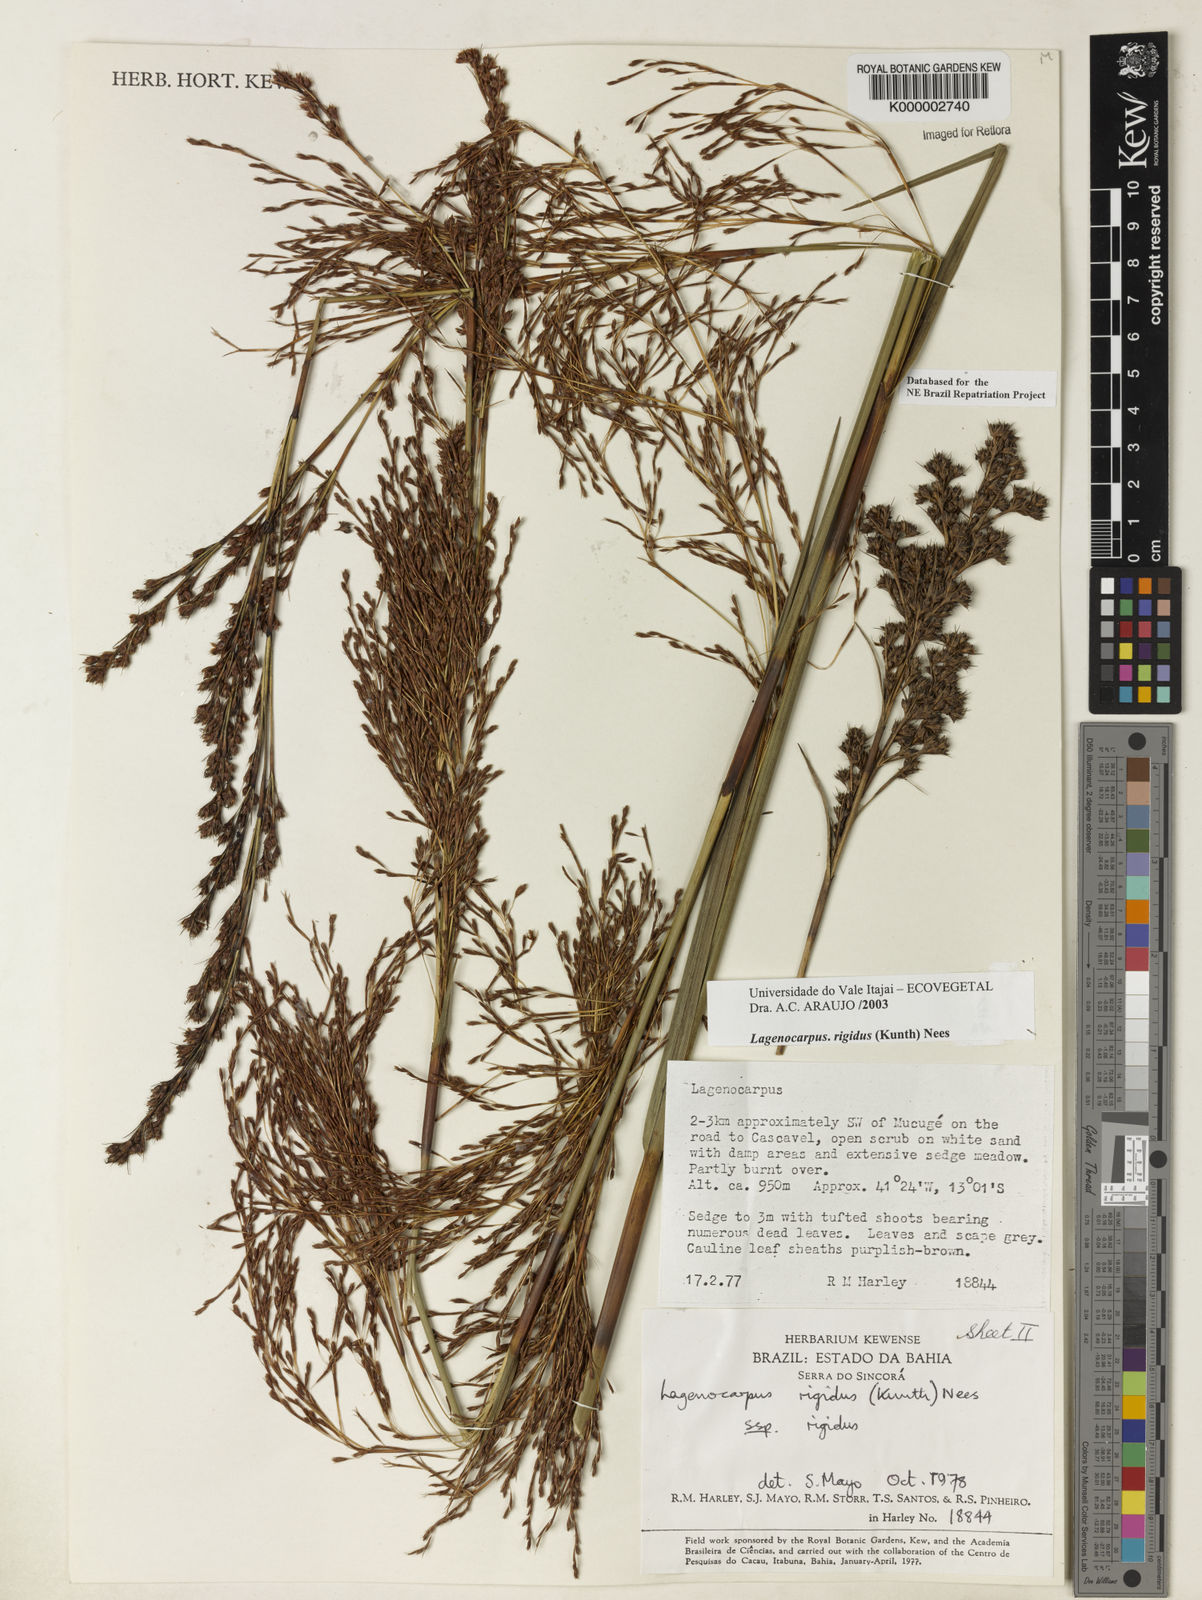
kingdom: Plantae
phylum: Tracheophyta
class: Liliopsida
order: Poales
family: Cyperaceae
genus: Lagenocarpus
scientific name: Lagenocarpus rigidus
